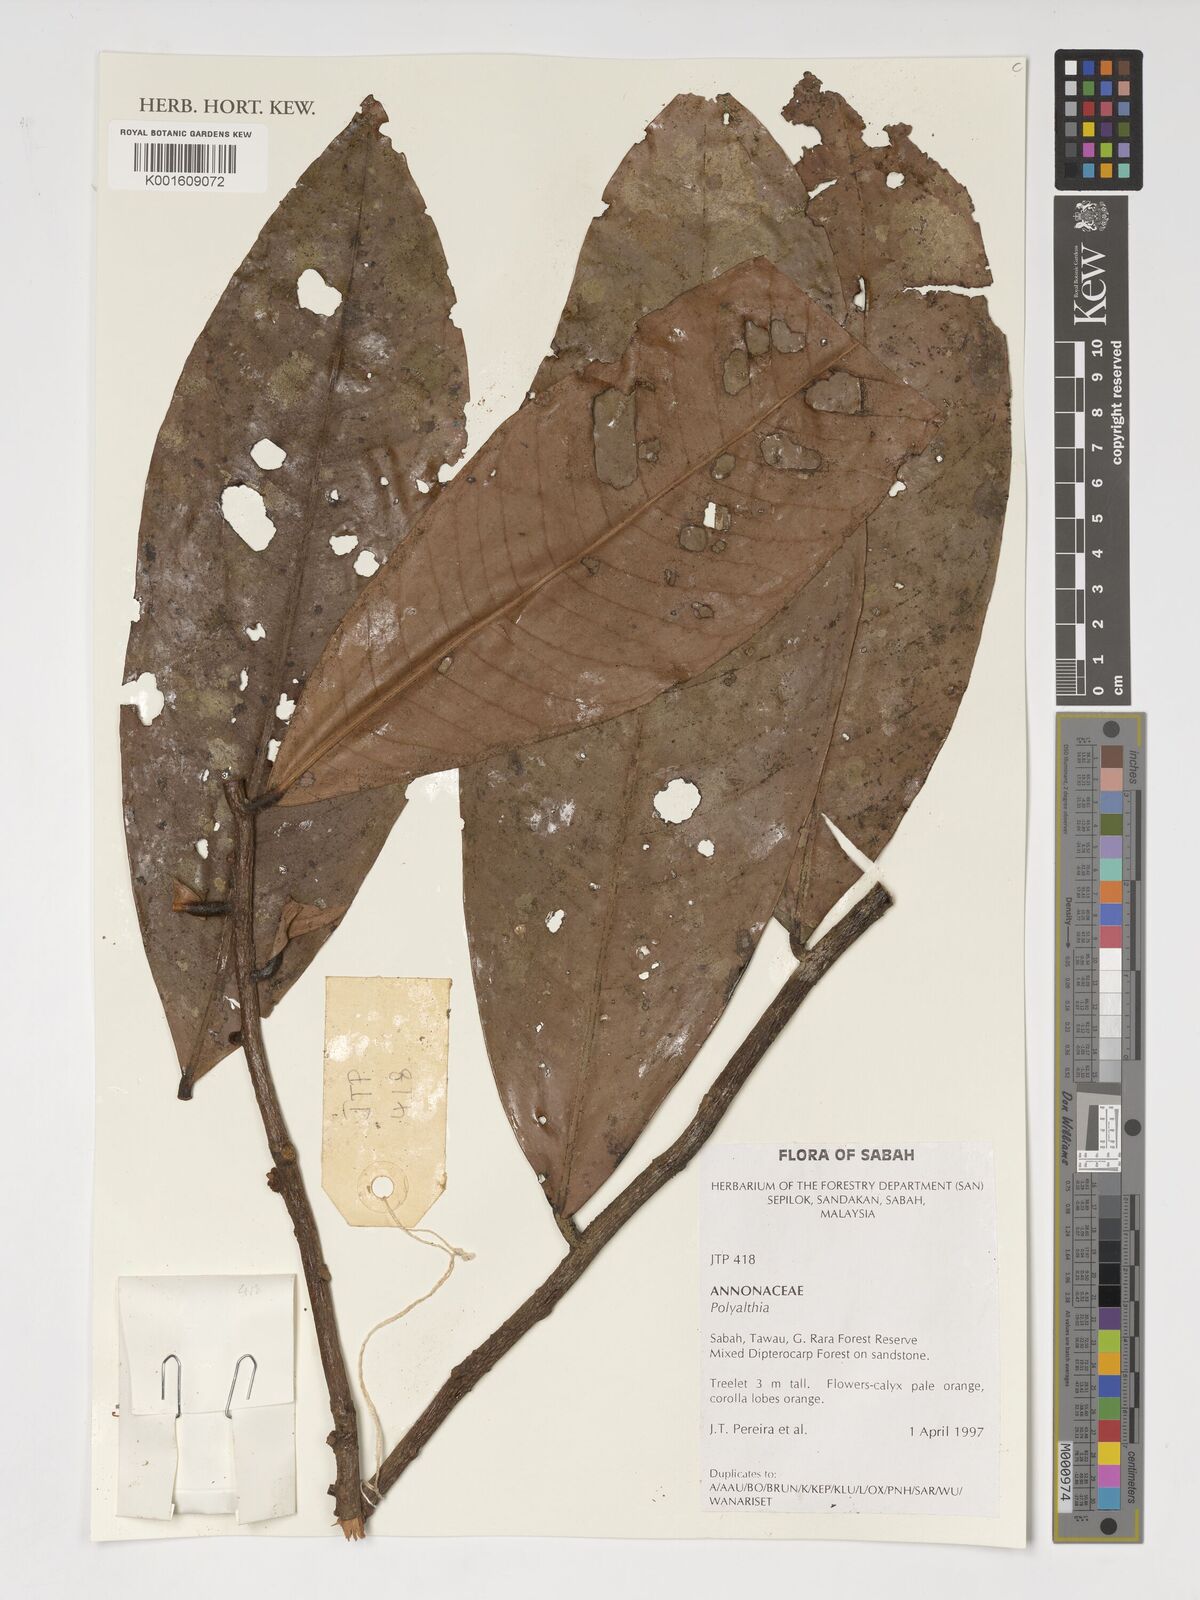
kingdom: Plantae
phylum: Tracheophyta
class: Magnoliopsida
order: Magnoliales
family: Annonaceae
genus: Polyalthia
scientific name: Polyalthia
